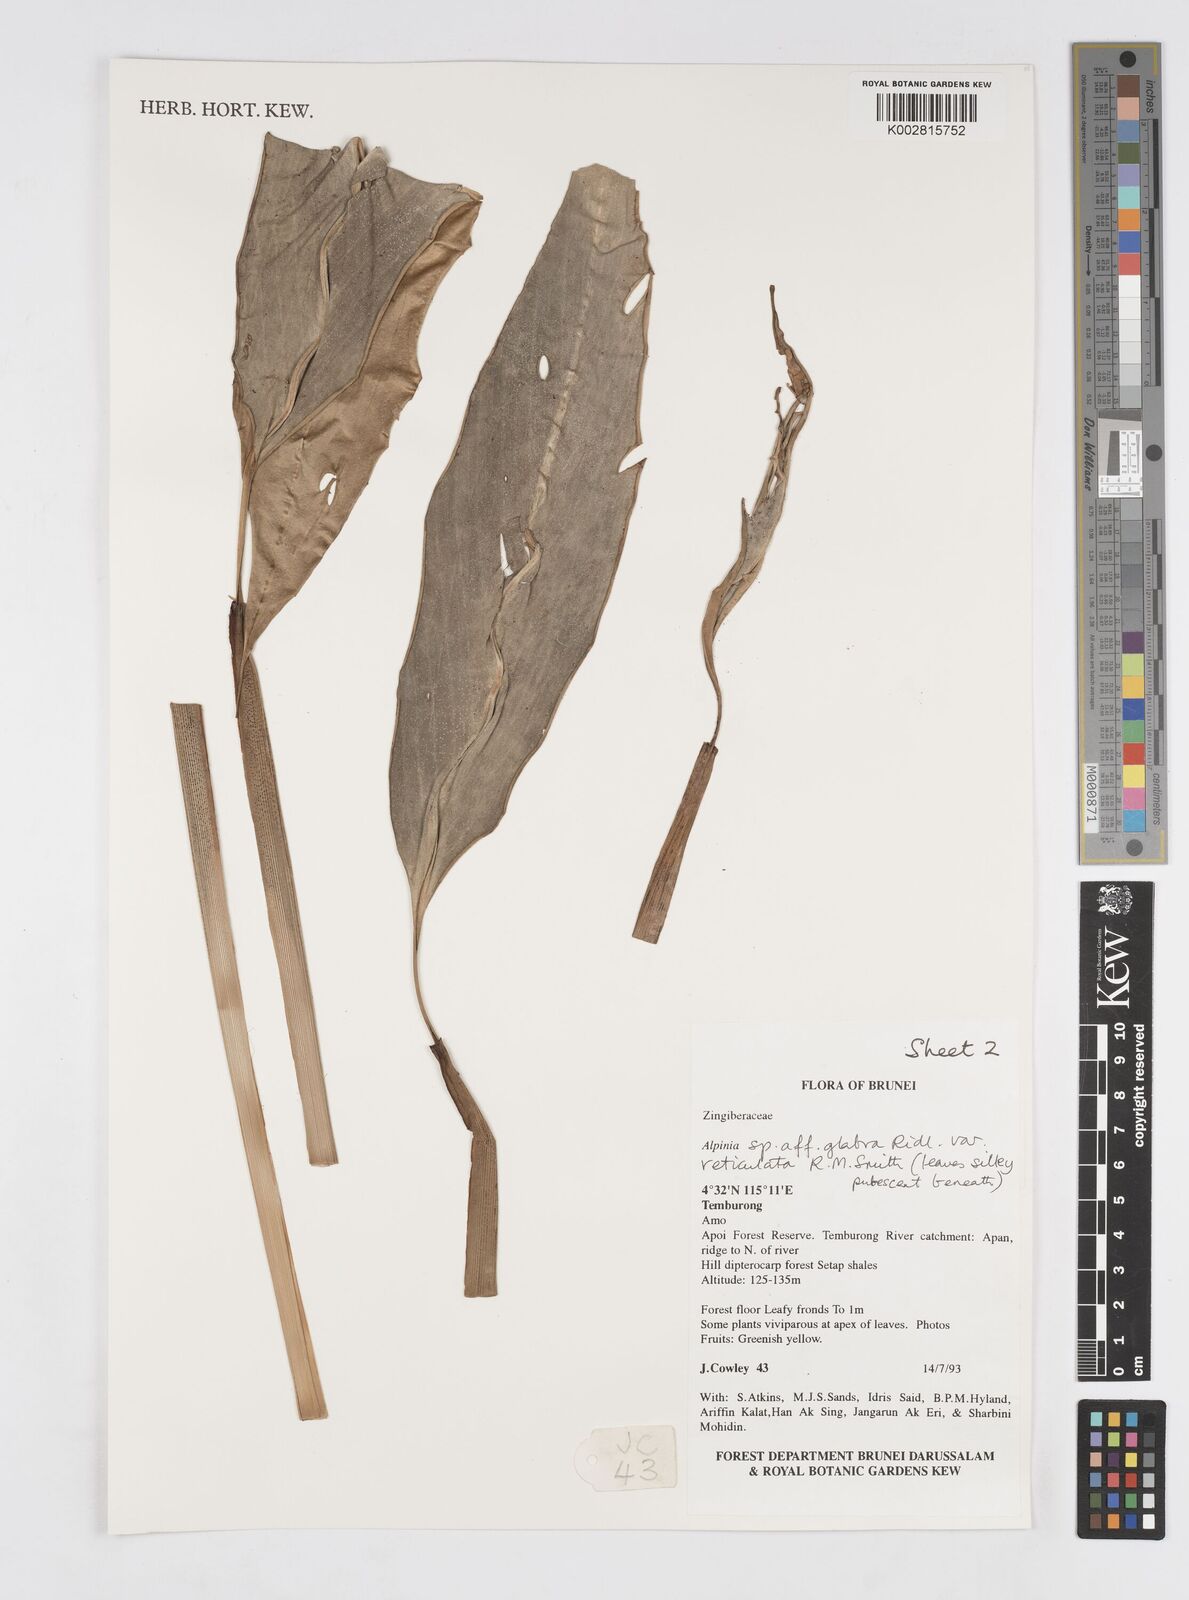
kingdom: Plantae
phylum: Tracheophyta
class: Liliopsida
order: Zingiberales
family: Zingiberaceae
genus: Alpinia
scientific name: Alpinia glabra
